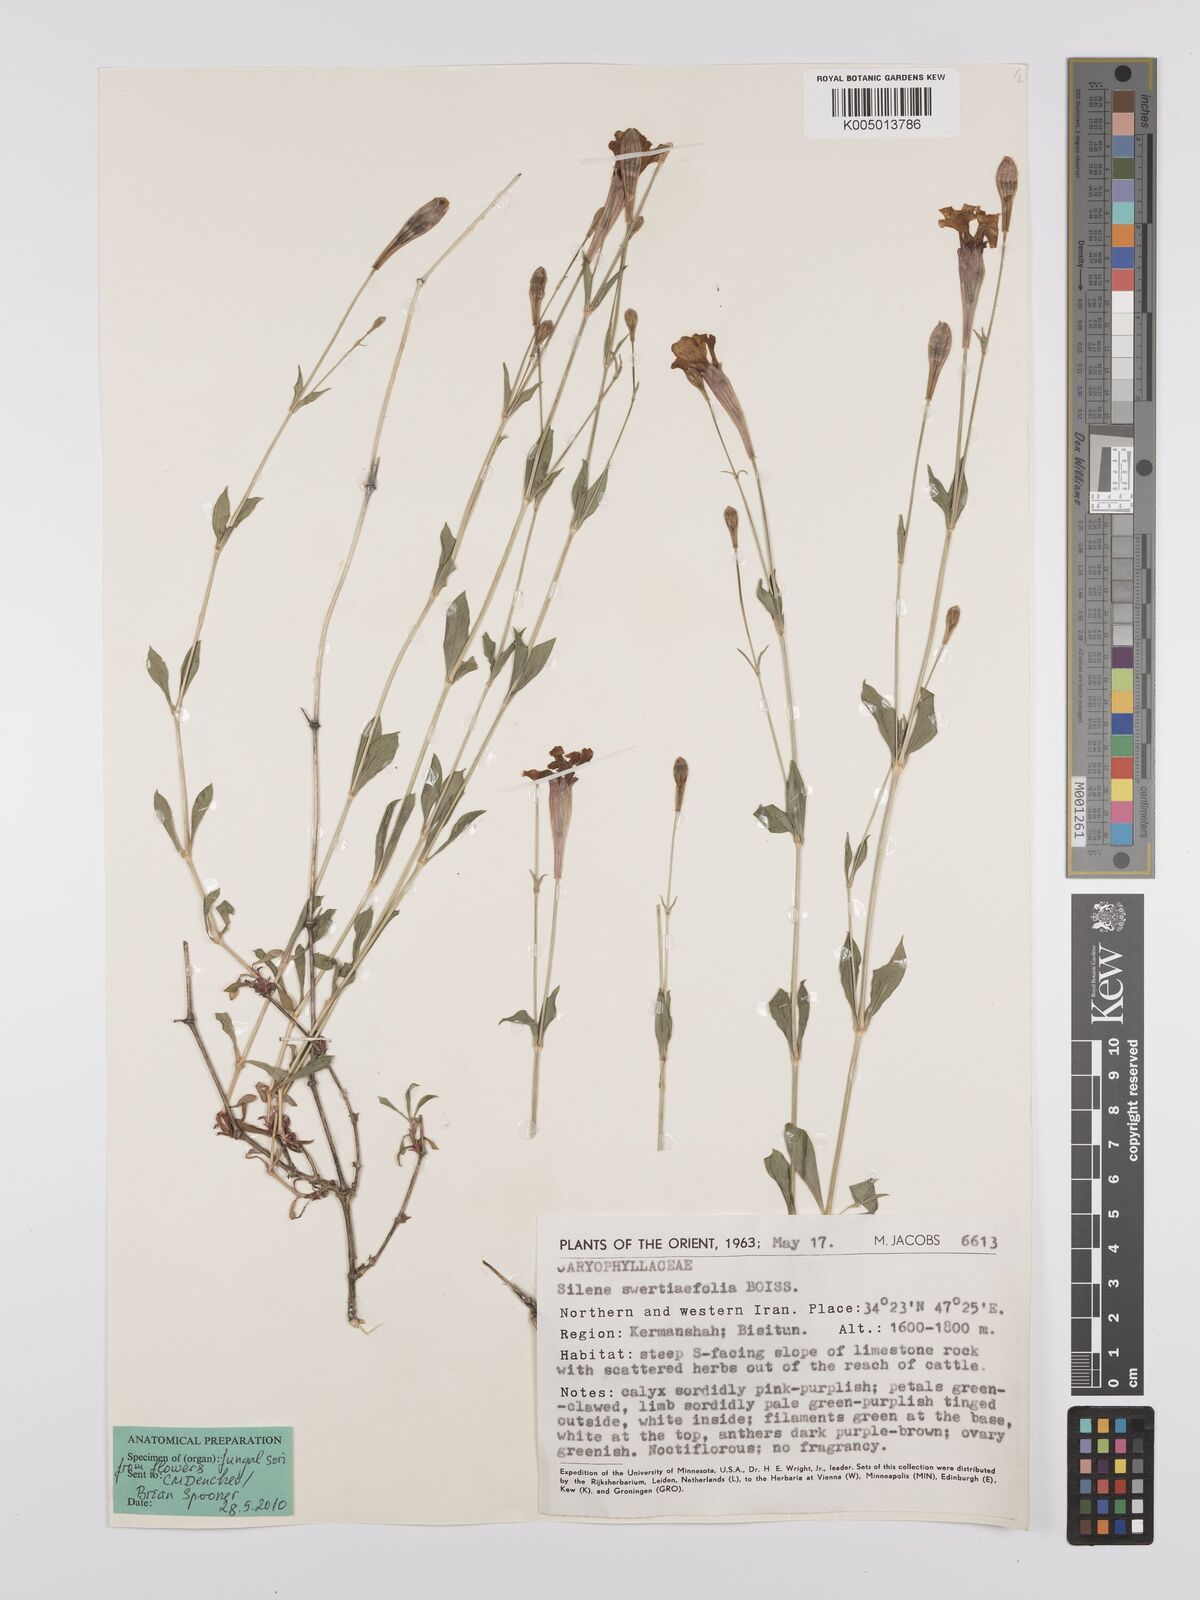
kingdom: Plantae
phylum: Tracheophyta
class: Magnoliopsida
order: Caryophyllales
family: Caryophyllaceae
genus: Silene
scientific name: Silene swertiifolia
